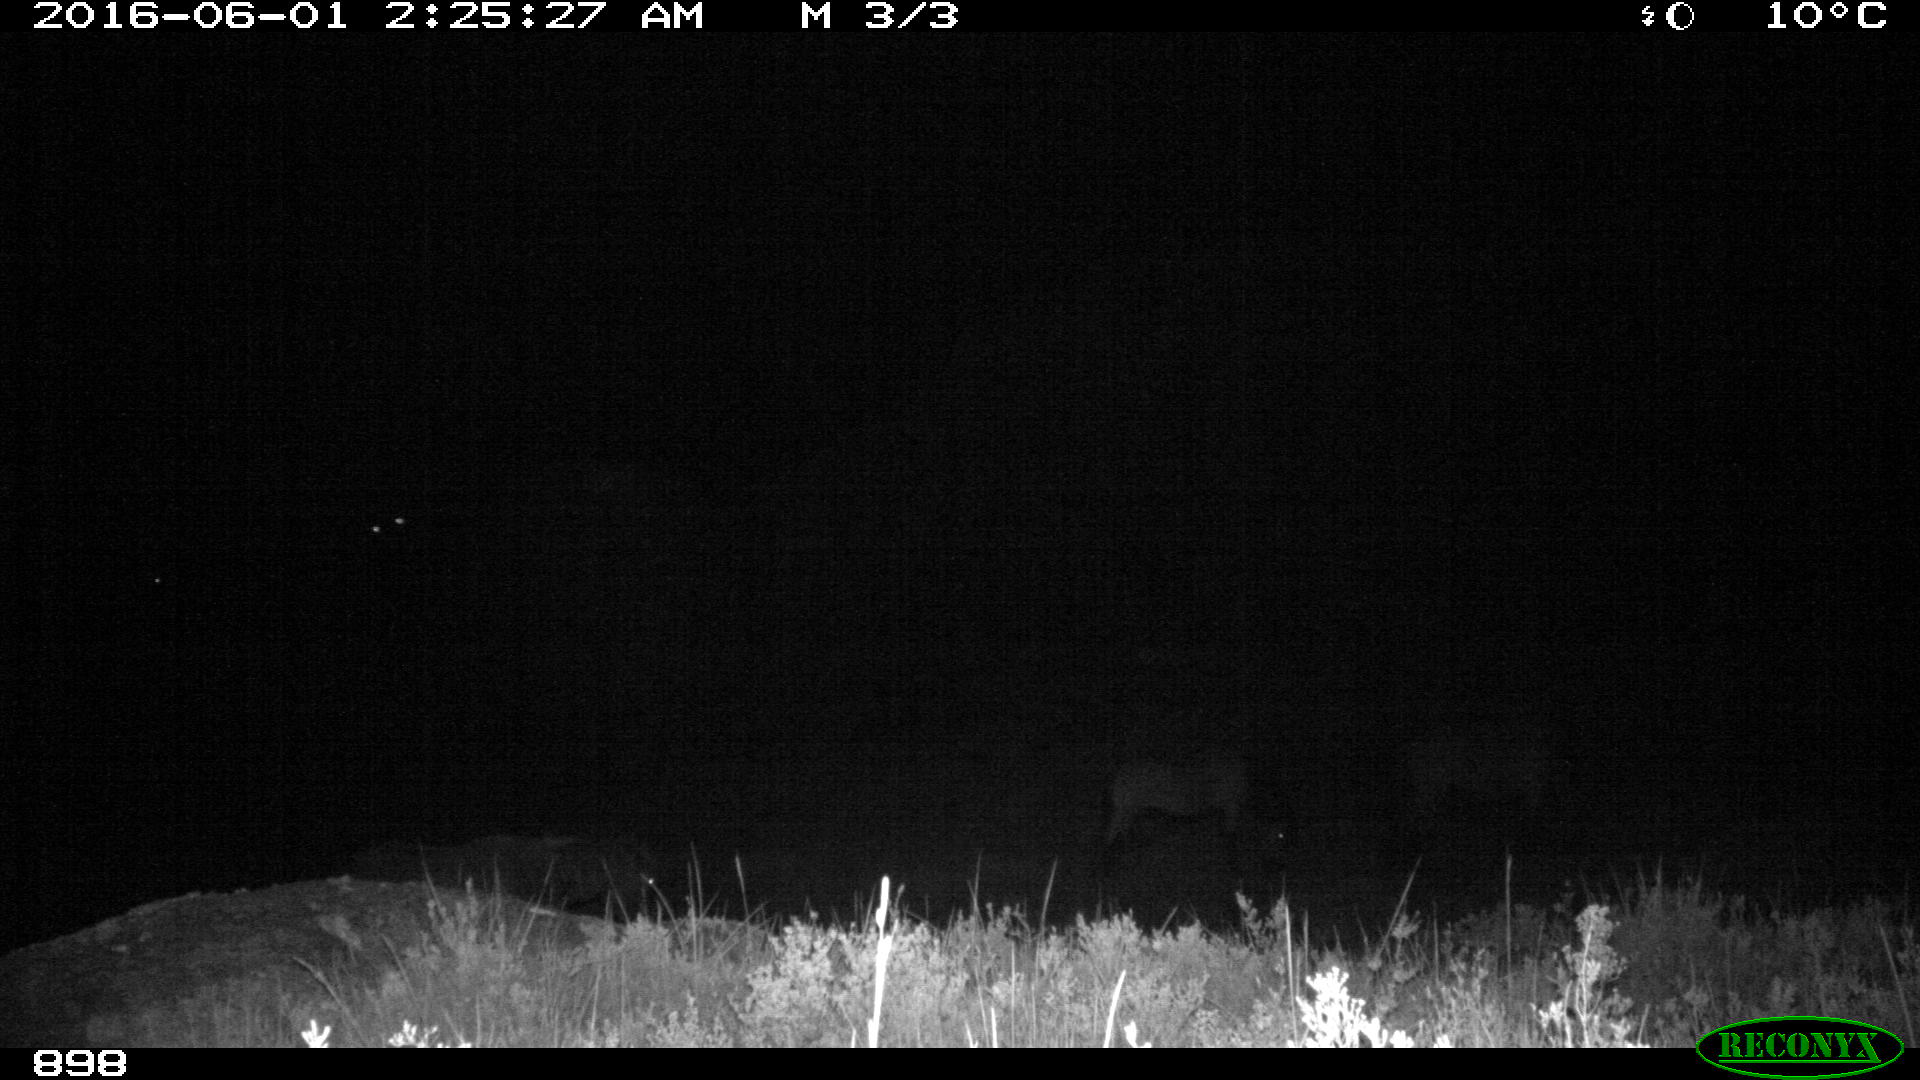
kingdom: Animalia
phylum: Chordata
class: Mammalia
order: Perissodactyla
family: Equidae
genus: Equus
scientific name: Equus caballus
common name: Horse
